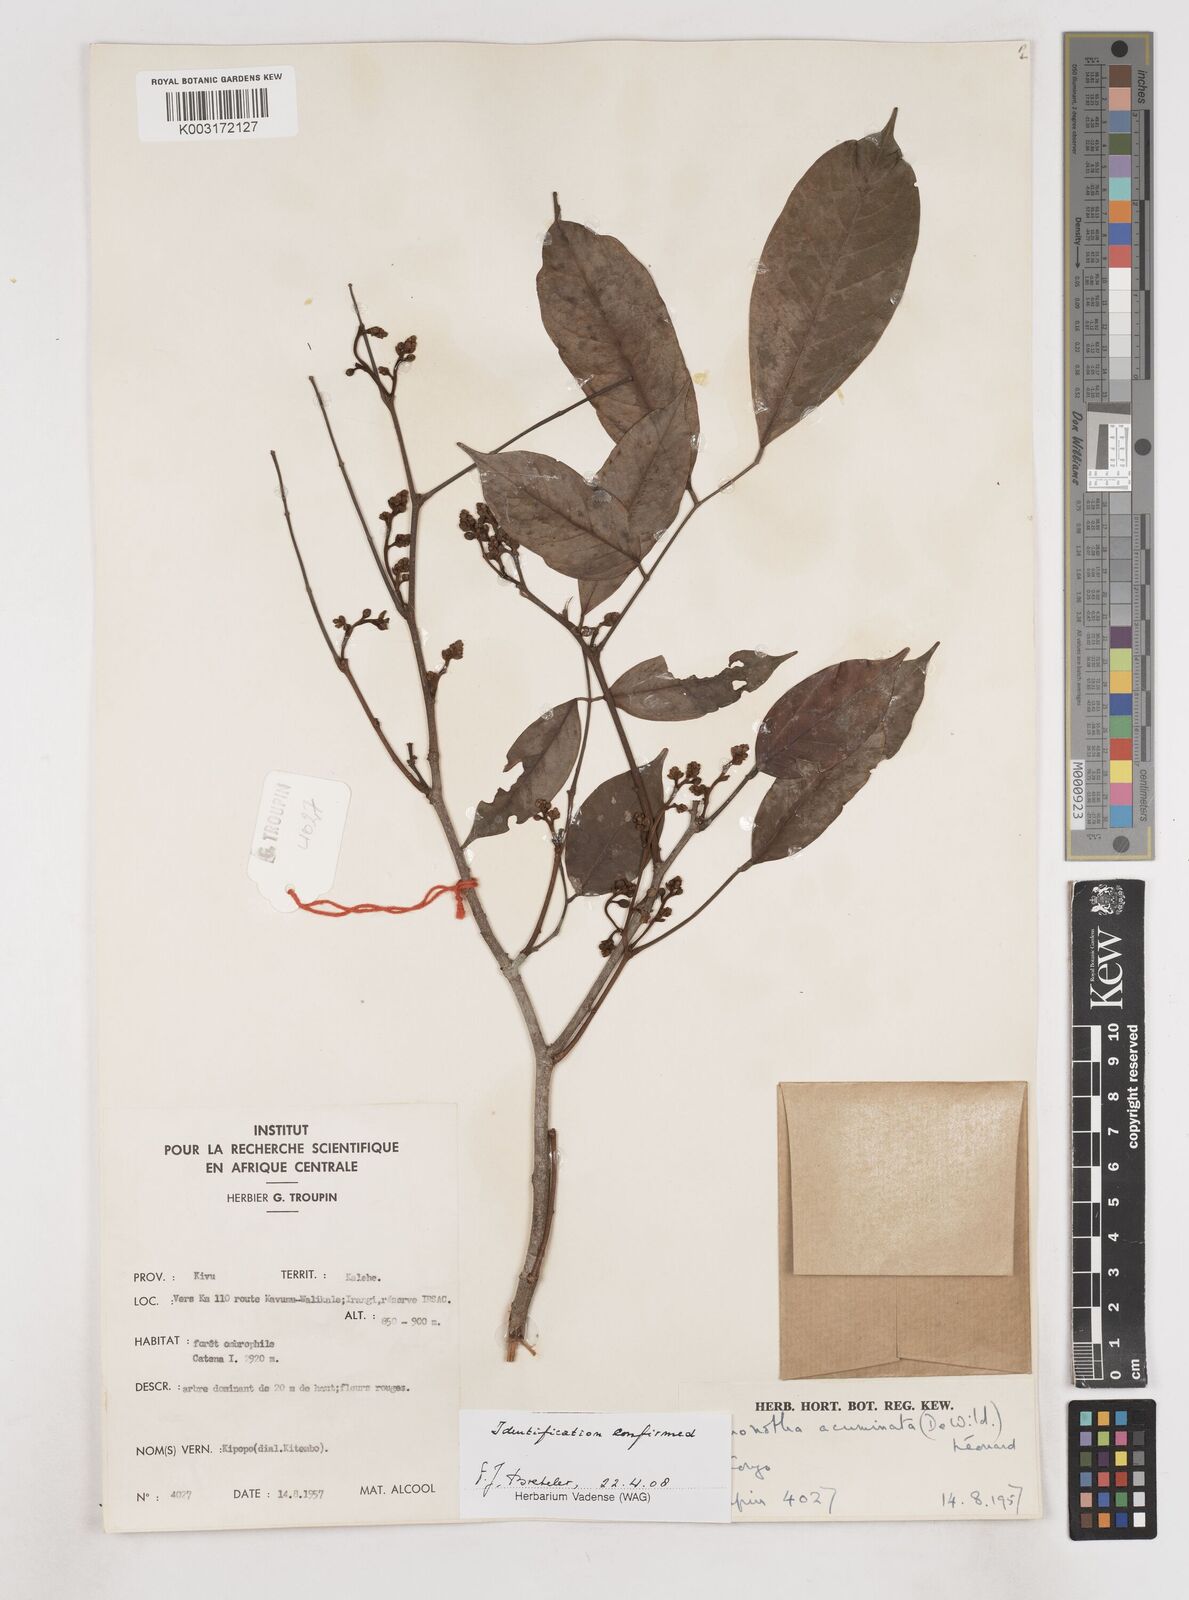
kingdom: Plantae
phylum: Tracheophyta
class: Magnoliopsida
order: Fabales
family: Fabaceae
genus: Anthonotha
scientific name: Anthonotha acuminata
